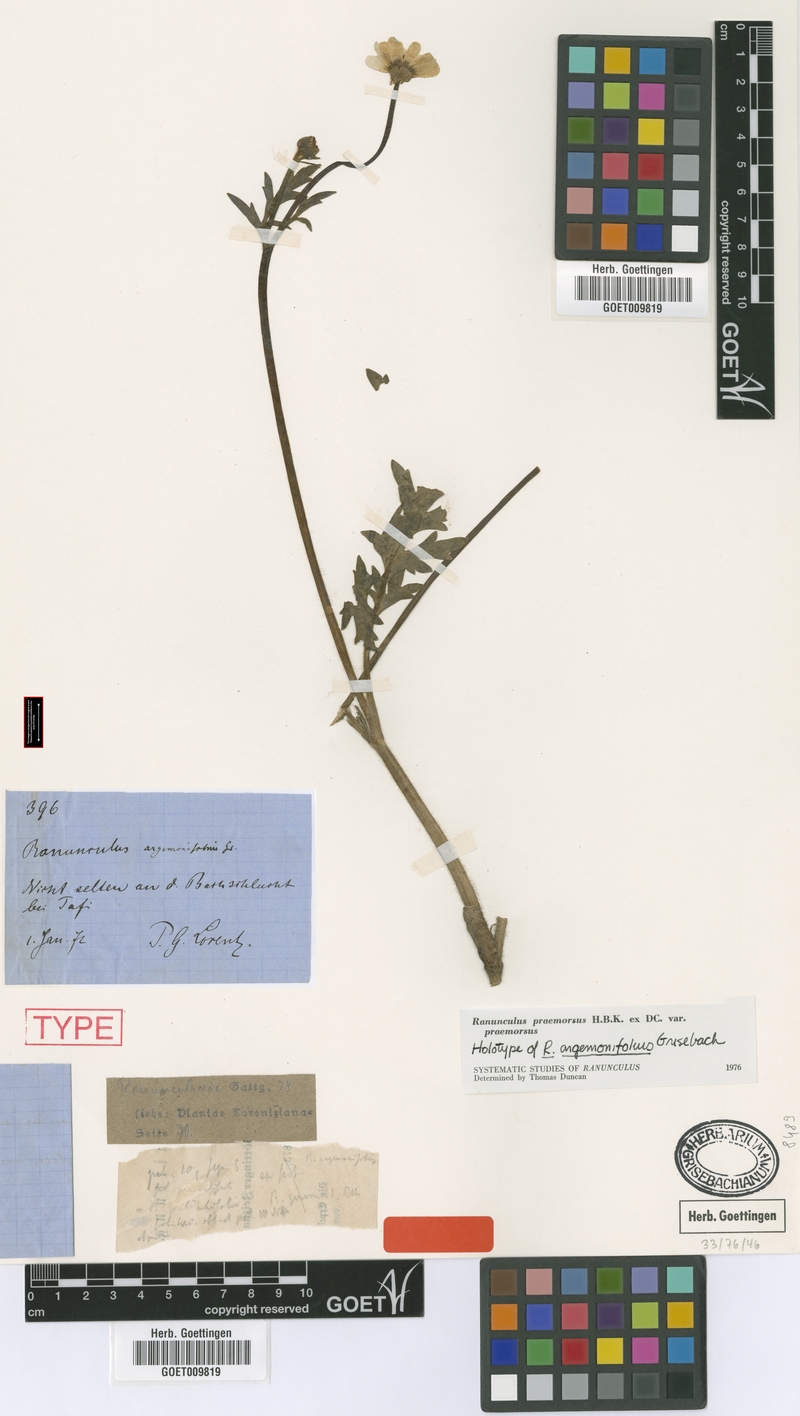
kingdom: Plantae
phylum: Tracheophyta
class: Magnoliopsida
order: Ranunculales
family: Ranunculaceae
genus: Ranunculus
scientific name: Ranunculus praemorsus
